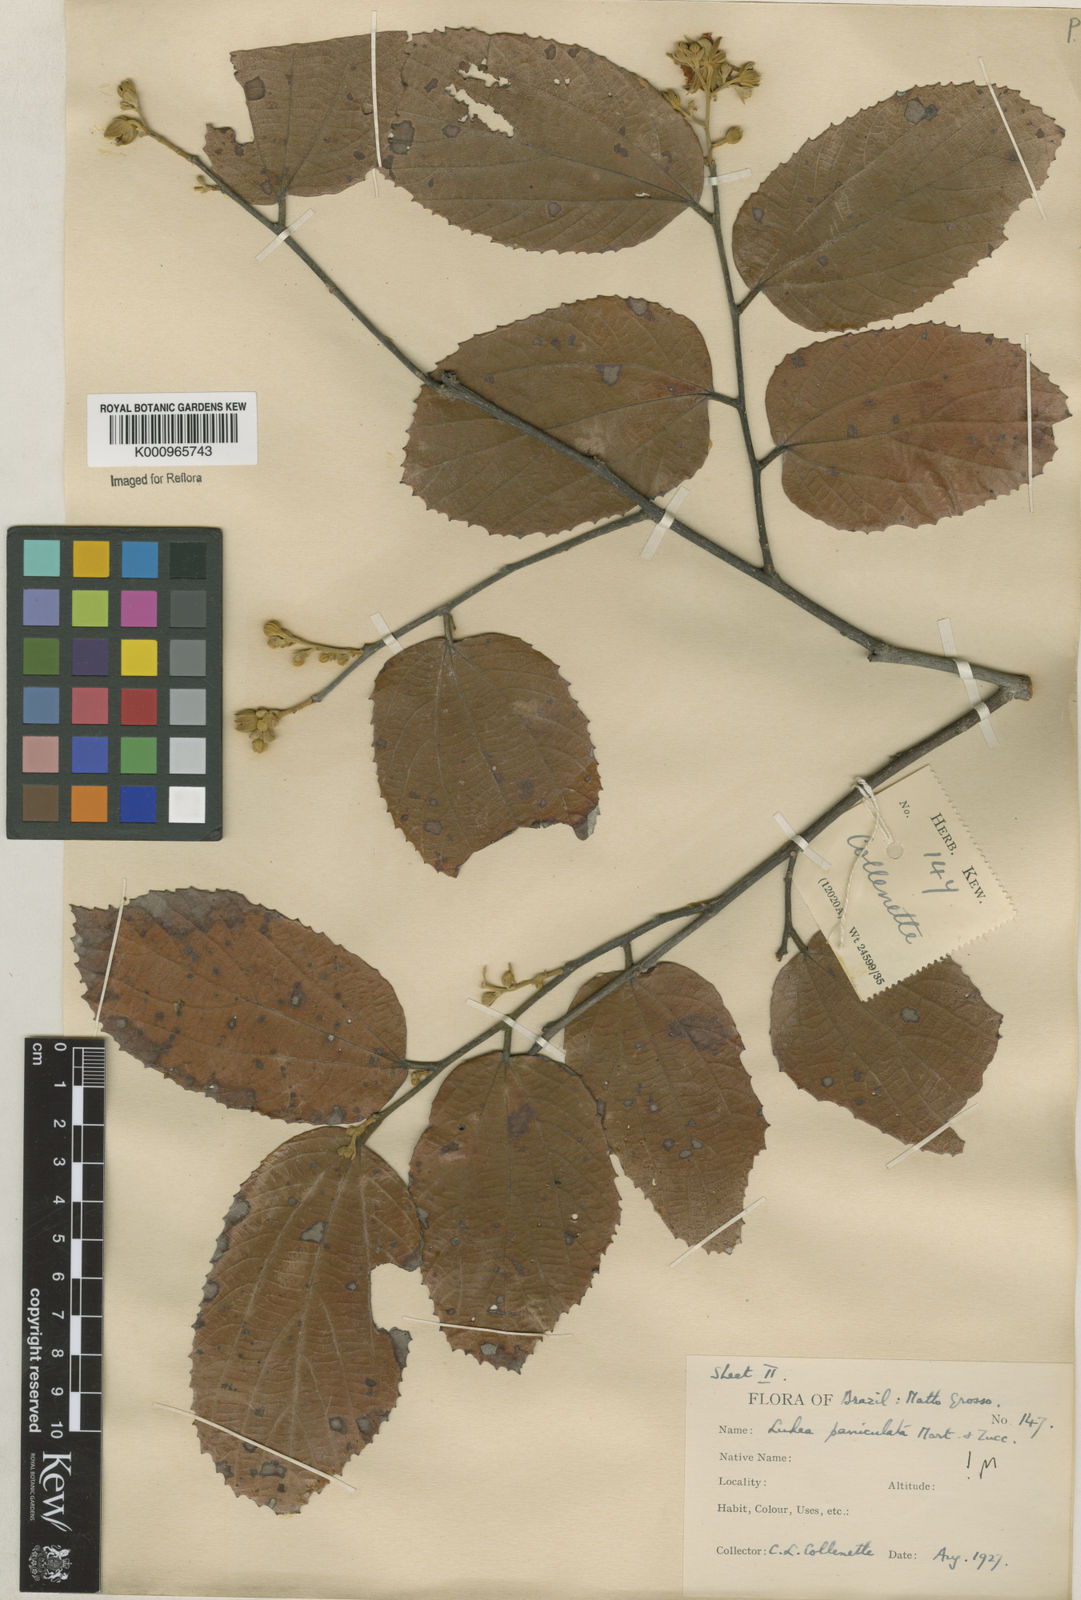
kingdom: Plantae
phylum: Tracheophyta
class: Magnoliopsida
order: Malvales
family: Malvaceae
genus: Luehea
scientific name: Luehea paniculata
